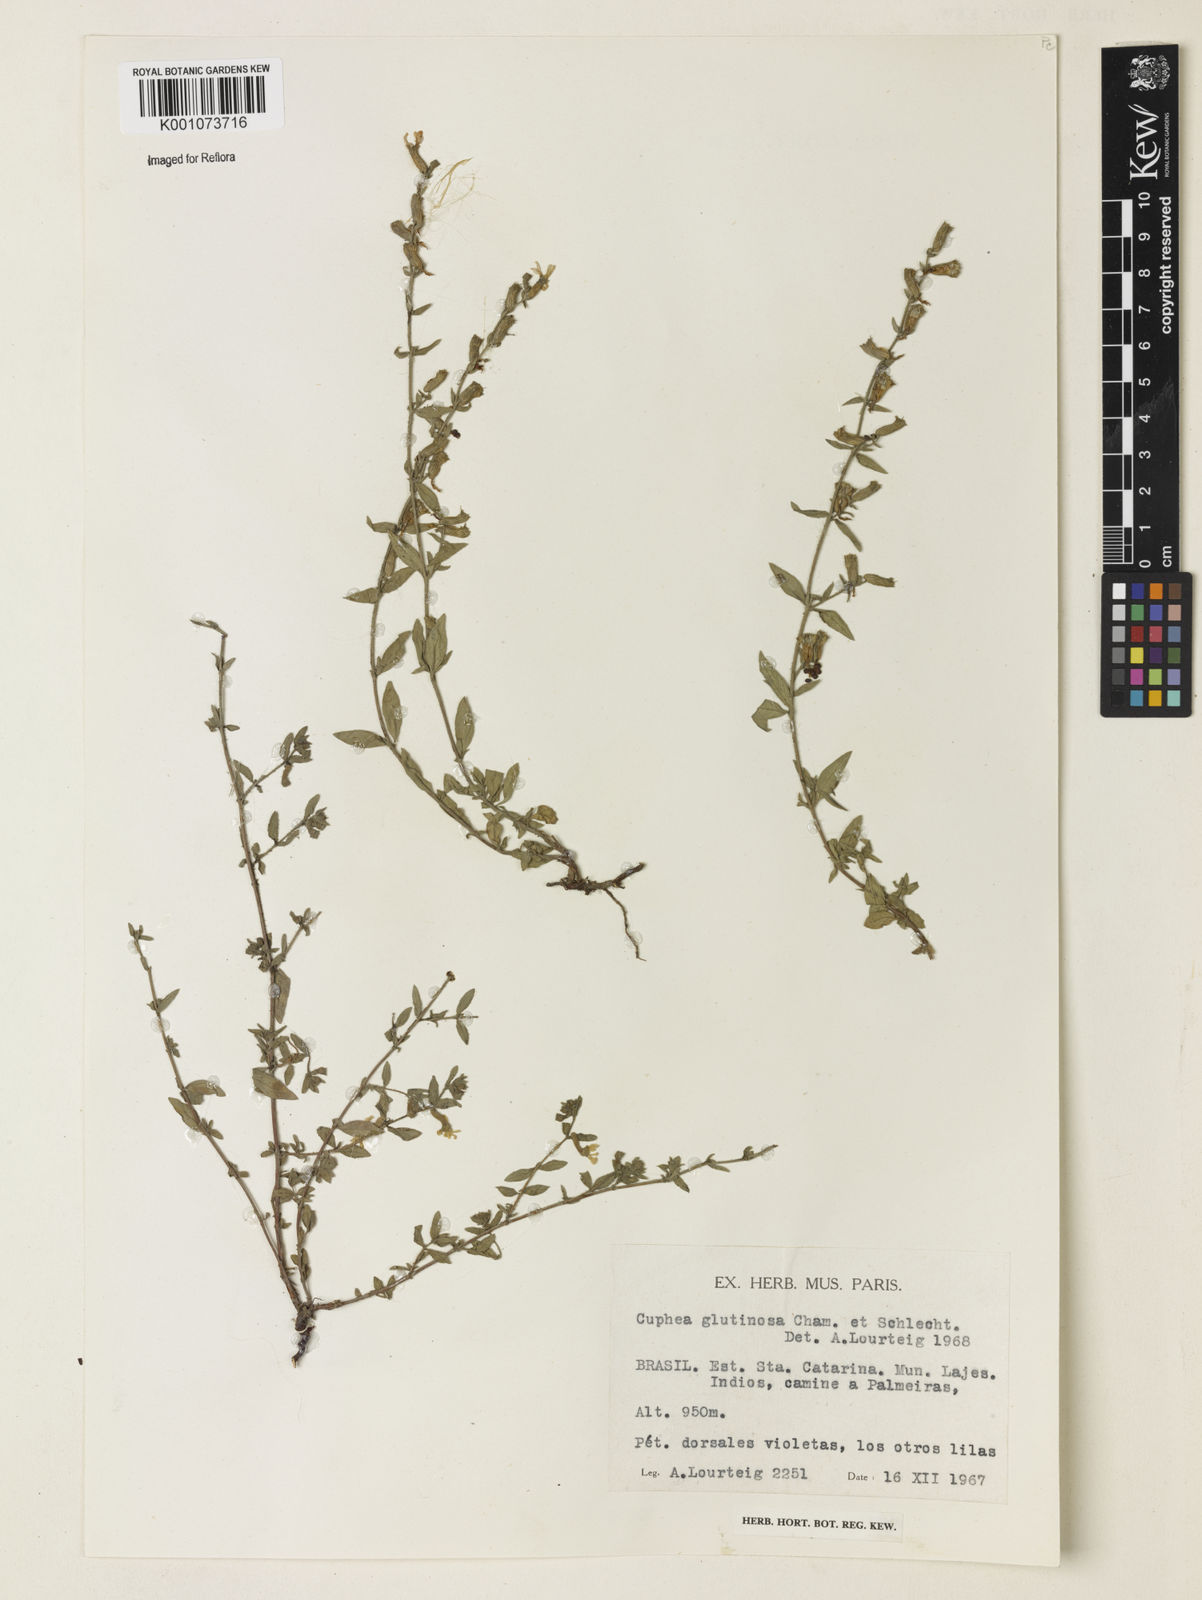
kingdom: Plantae
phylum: Tracheophyta
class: Magnoliopsida
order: Myrtales
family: Lythraceae
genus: Cuphea
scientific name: Cuphea glutinosa
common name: Sticky waxweed
